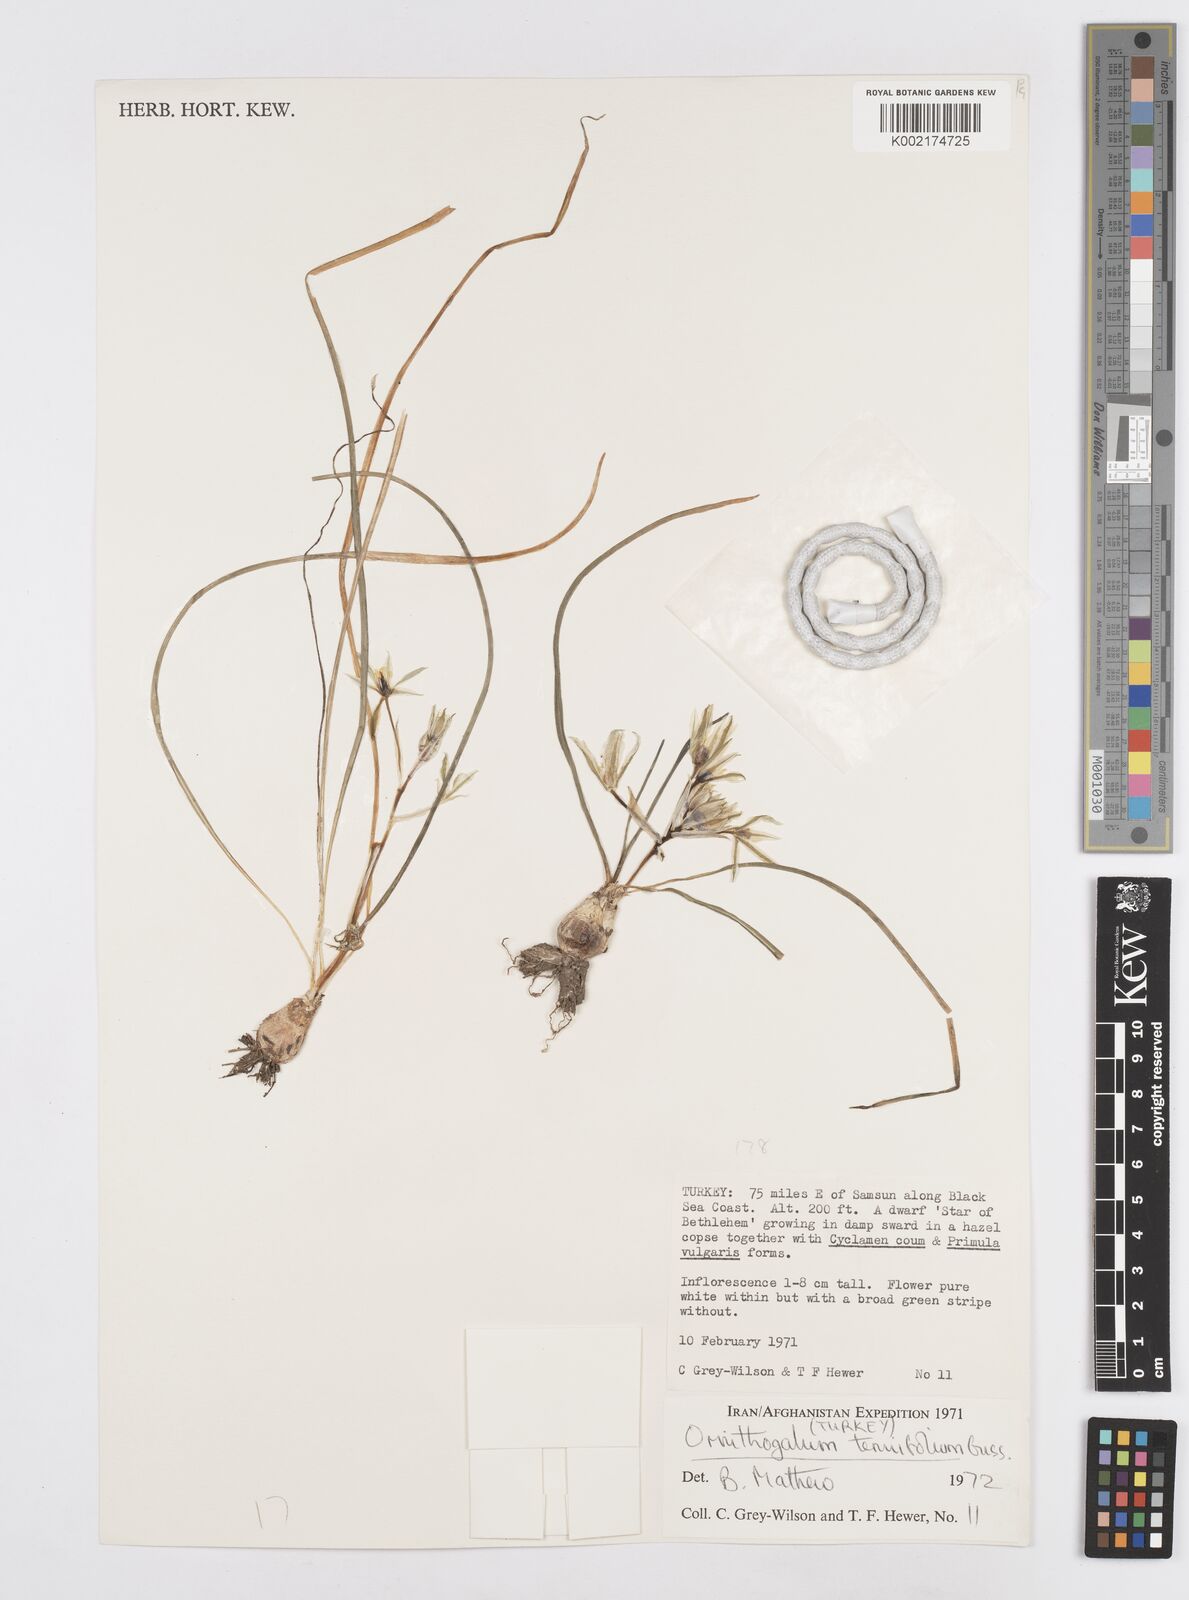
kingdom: Plantae
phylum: Tracheophyta
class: Liliopsida
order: Asparagales
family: Asparagaceae
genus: Ornithogalum
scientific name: Ornithogalum
